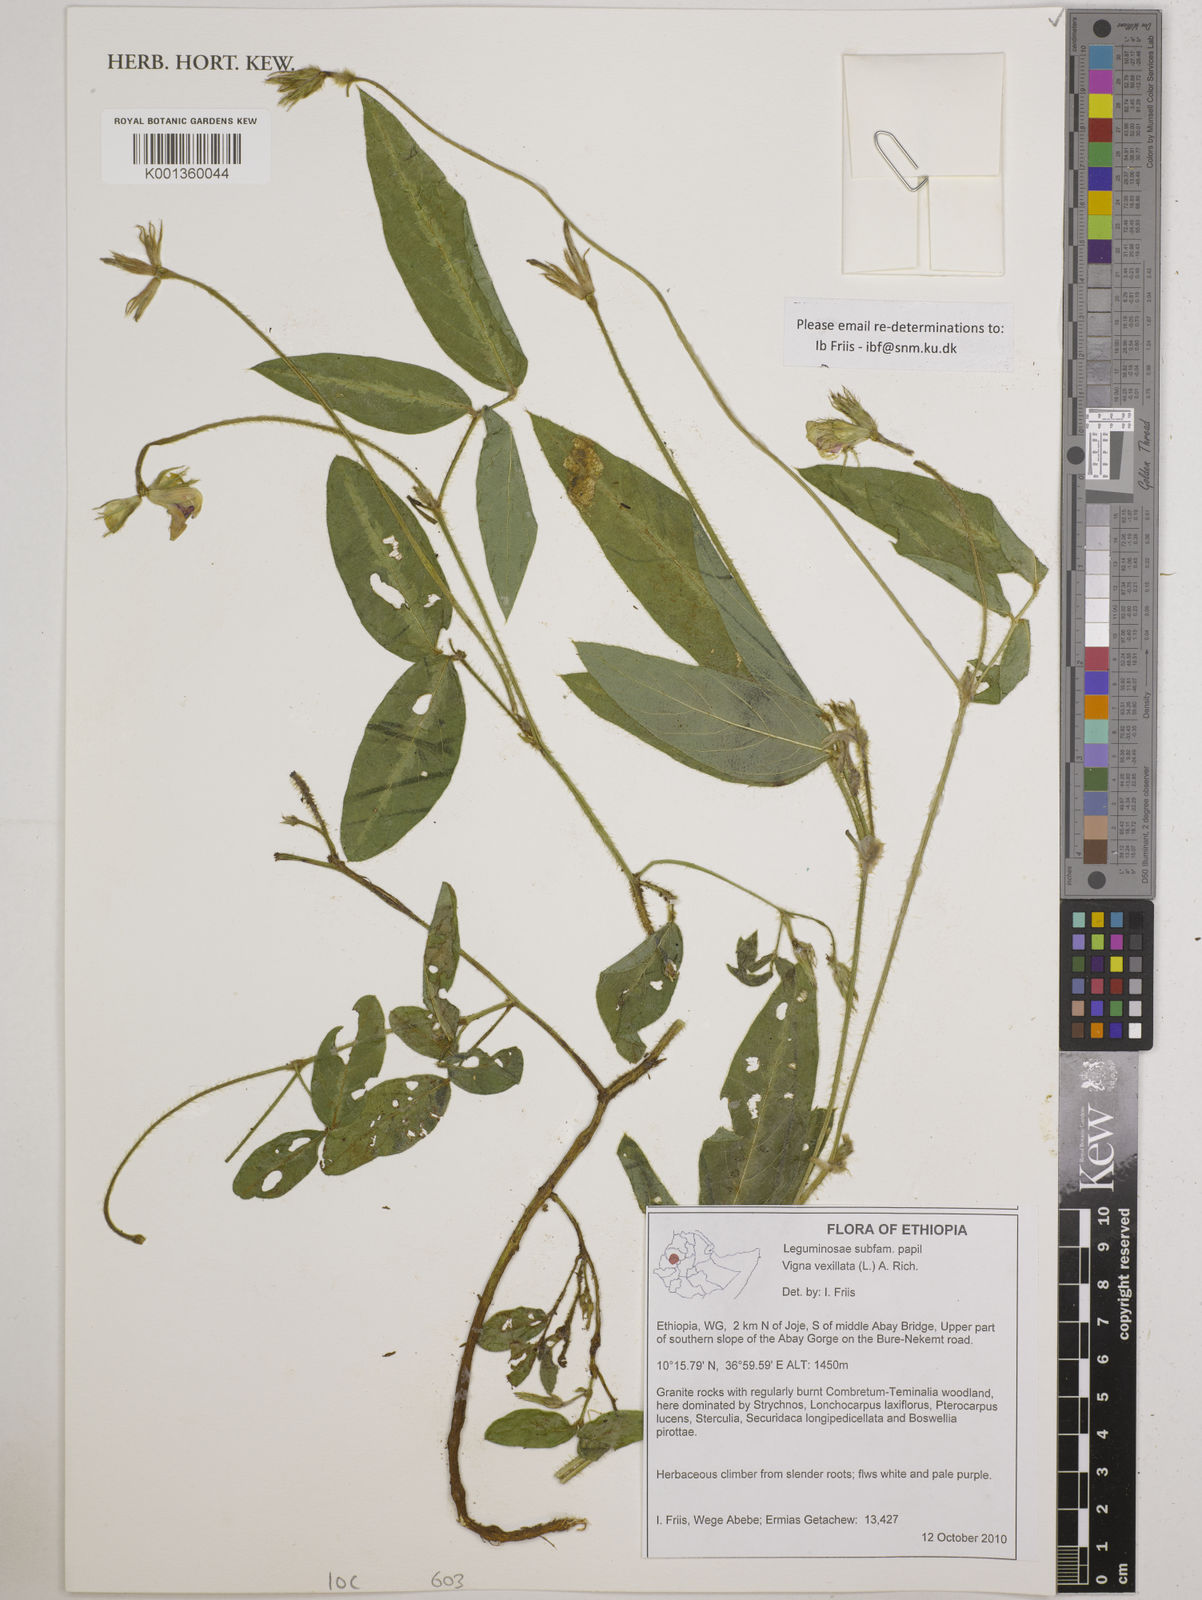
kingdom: Plantae
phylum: Tracheophyta
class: Magnoliopsida
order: Fabales
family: Fabaceae
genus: Vigna
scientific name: Vigna vexillata
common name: Zombi pea
